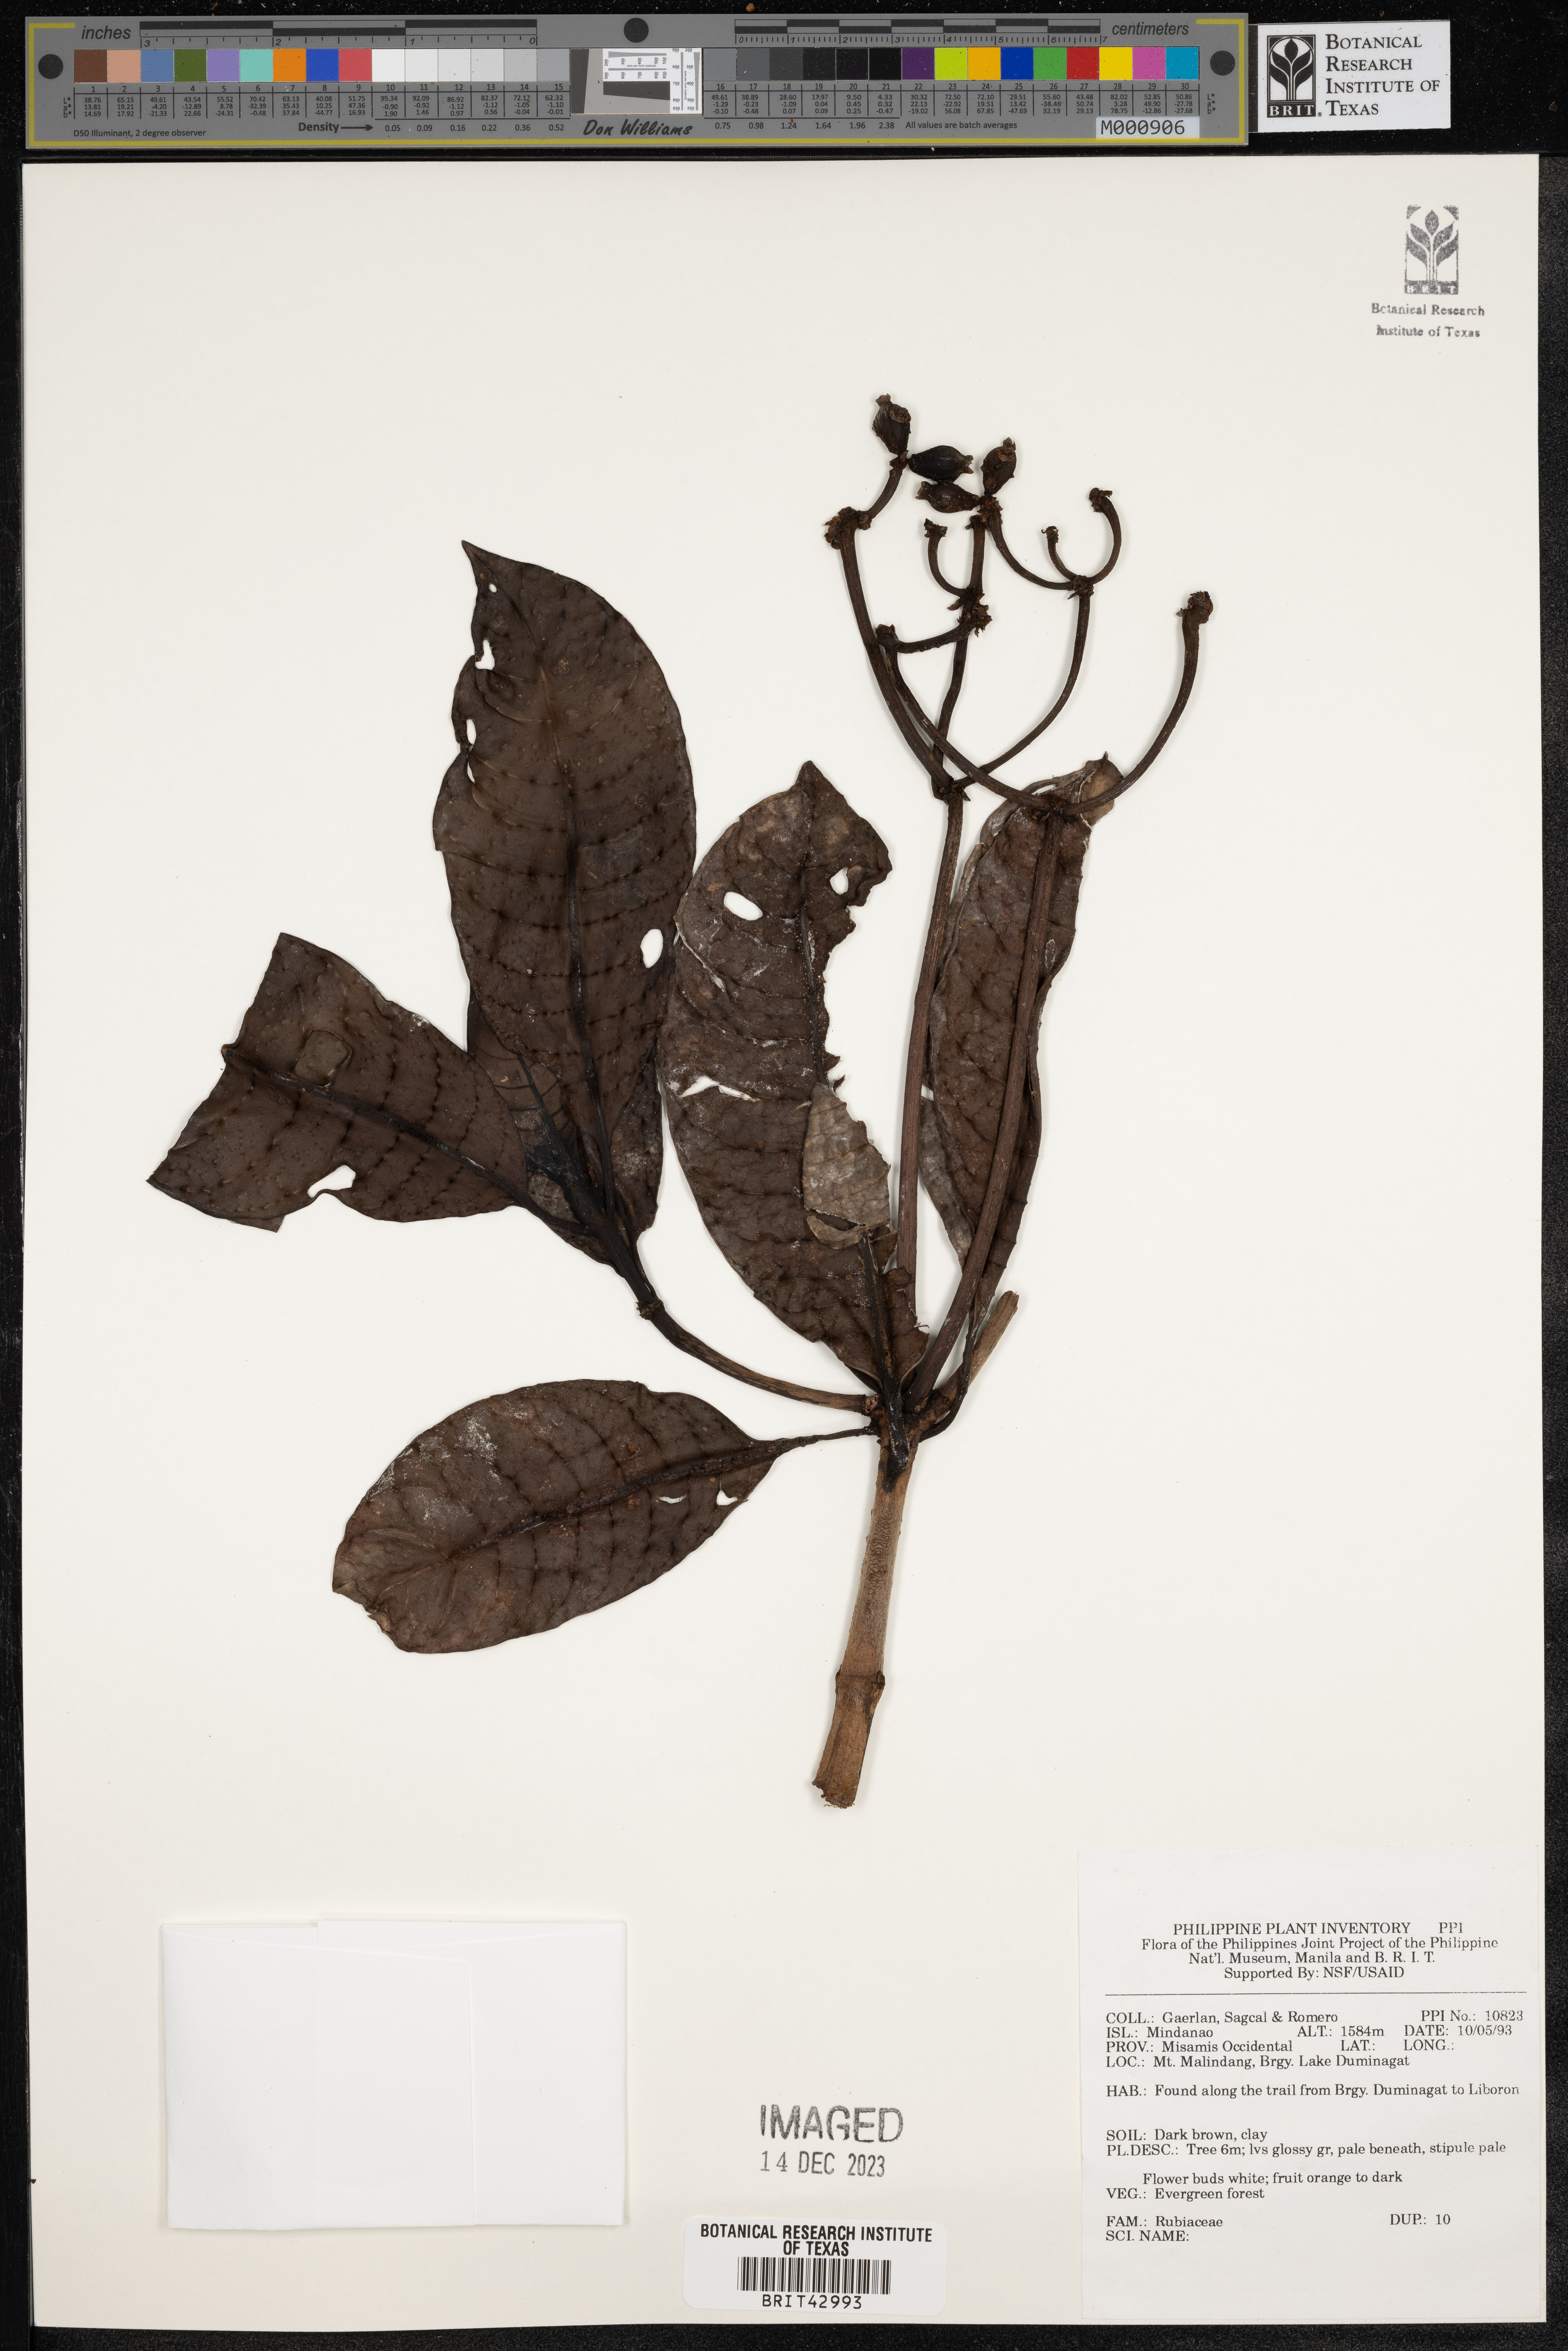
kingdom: Plantae
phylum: Tracheophyta
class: Magnoliopsida
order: Gentianales
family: Rubiaceae
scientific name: Rubiaceae
